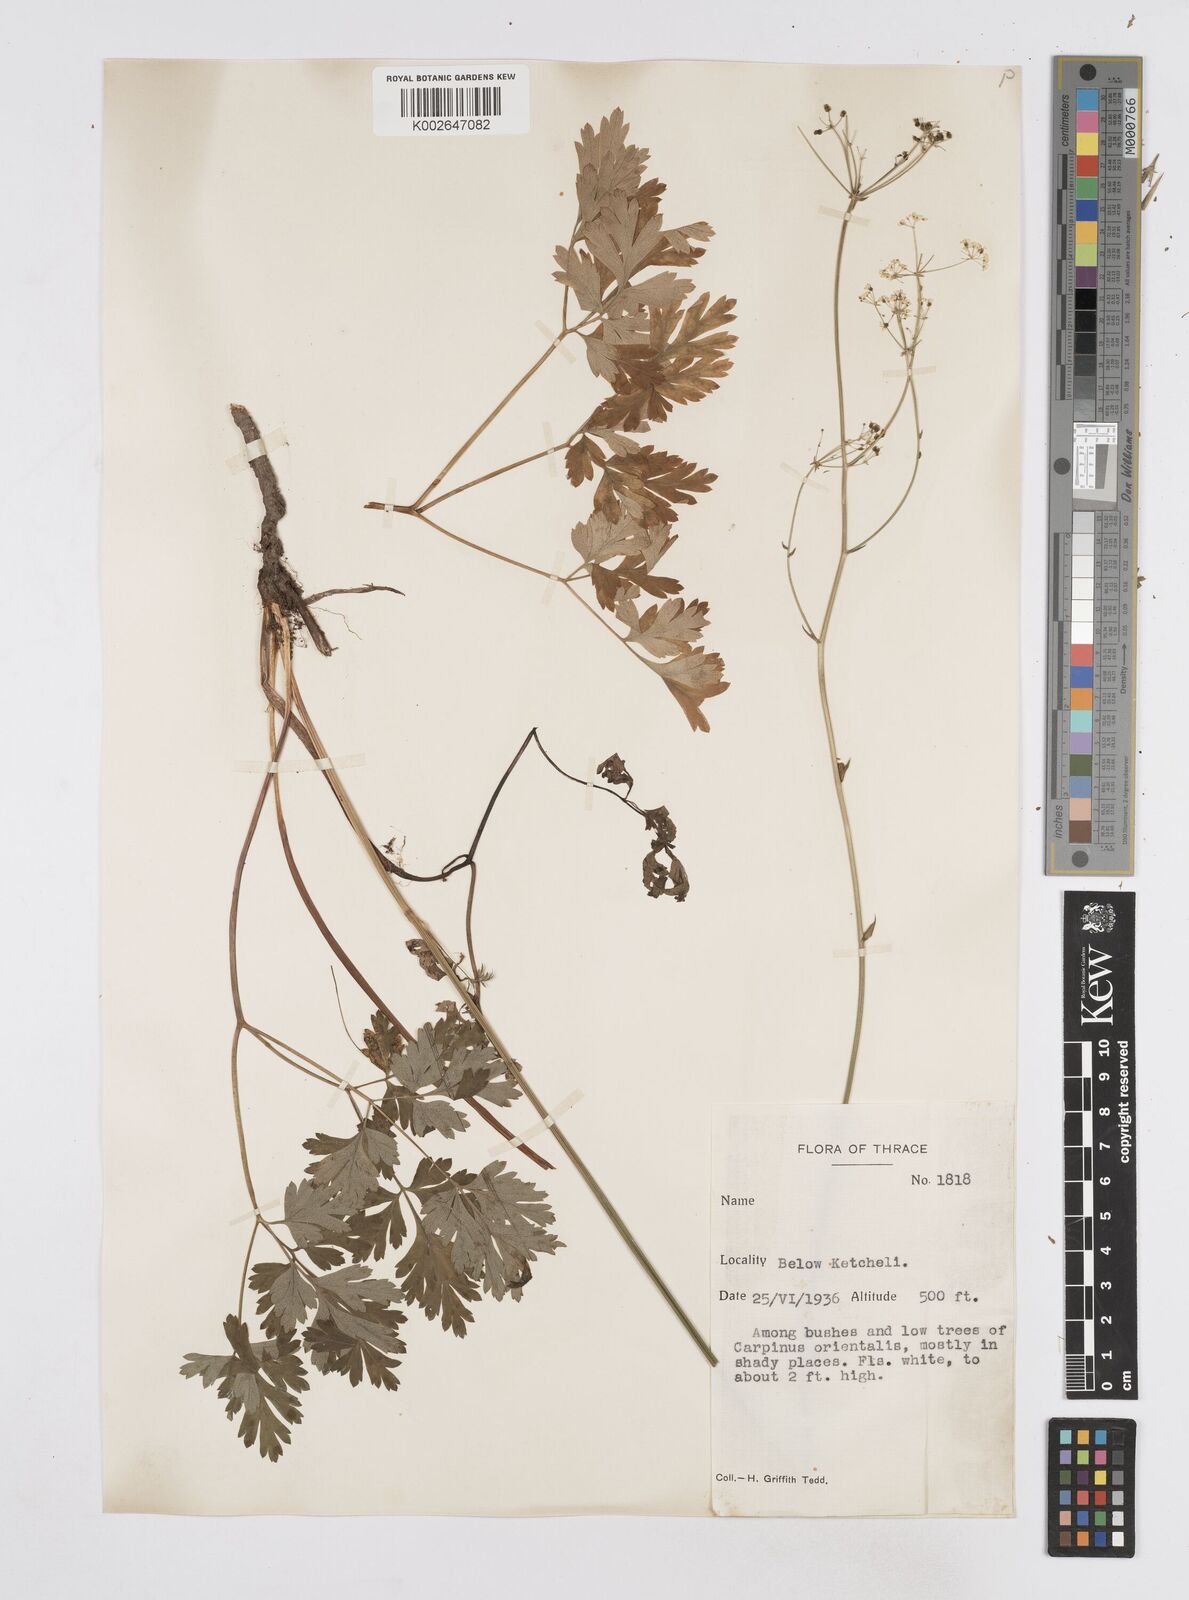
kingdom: Plantae
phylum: Tracheophyta
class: Magnoliopsida
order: Apiales
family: Apiaceae
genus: Physospermum
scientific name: Physospermum cornubiense
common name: Bladderseed
